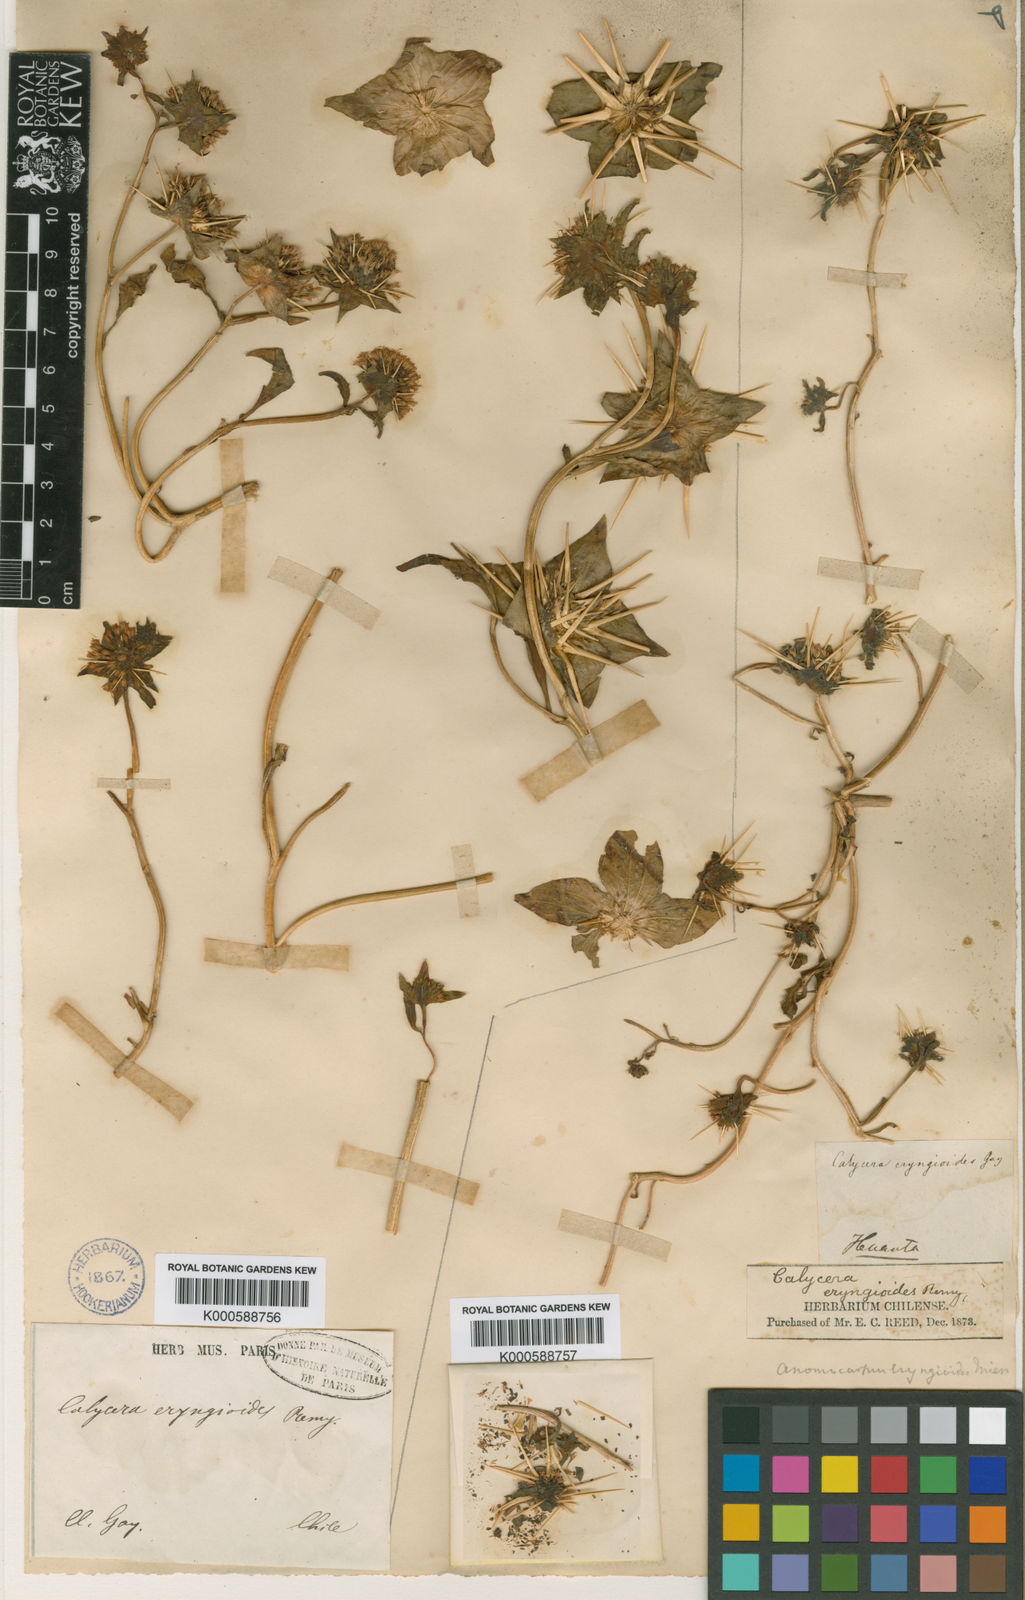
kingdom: Plantae
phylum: Tracheophyta
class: Magnoliopsida
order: Asterales
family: Calyceraceae
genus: Calycera
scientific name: Calycera
